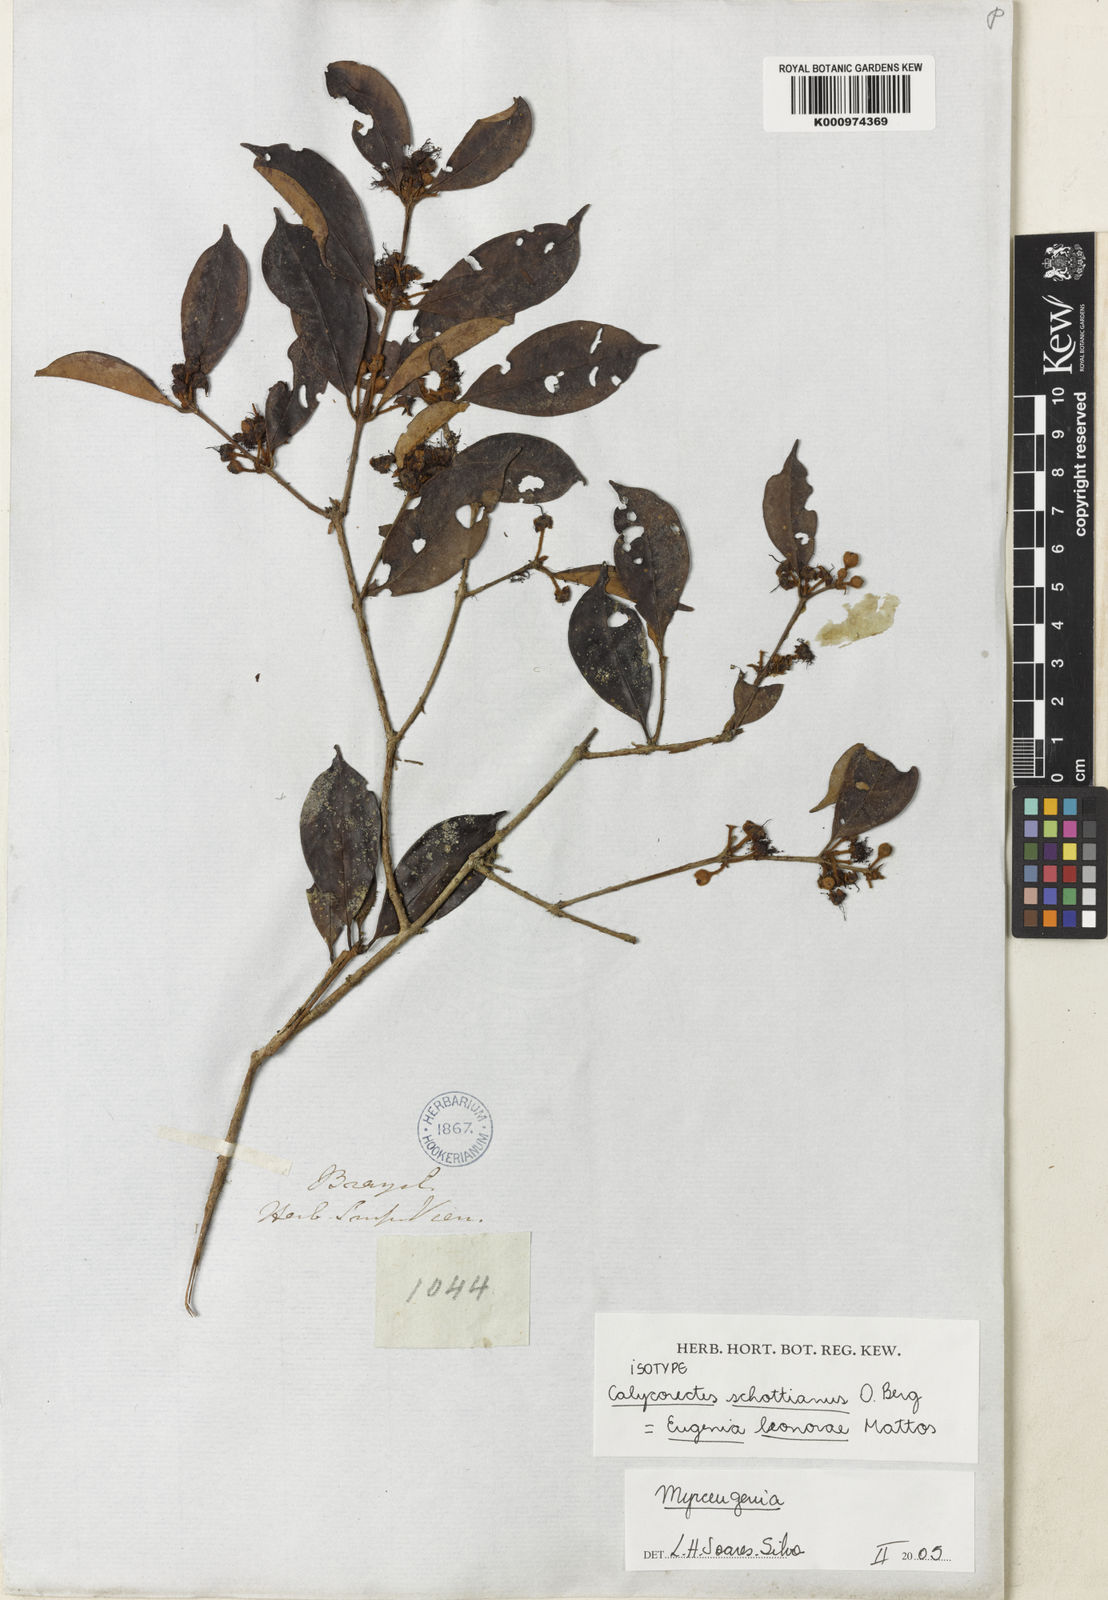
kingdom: Plantae
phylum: Tracheophyta
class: Magnoliopsida
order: Myrtales
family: Myrtaceae
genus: Eugenia
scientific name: Eugenia
